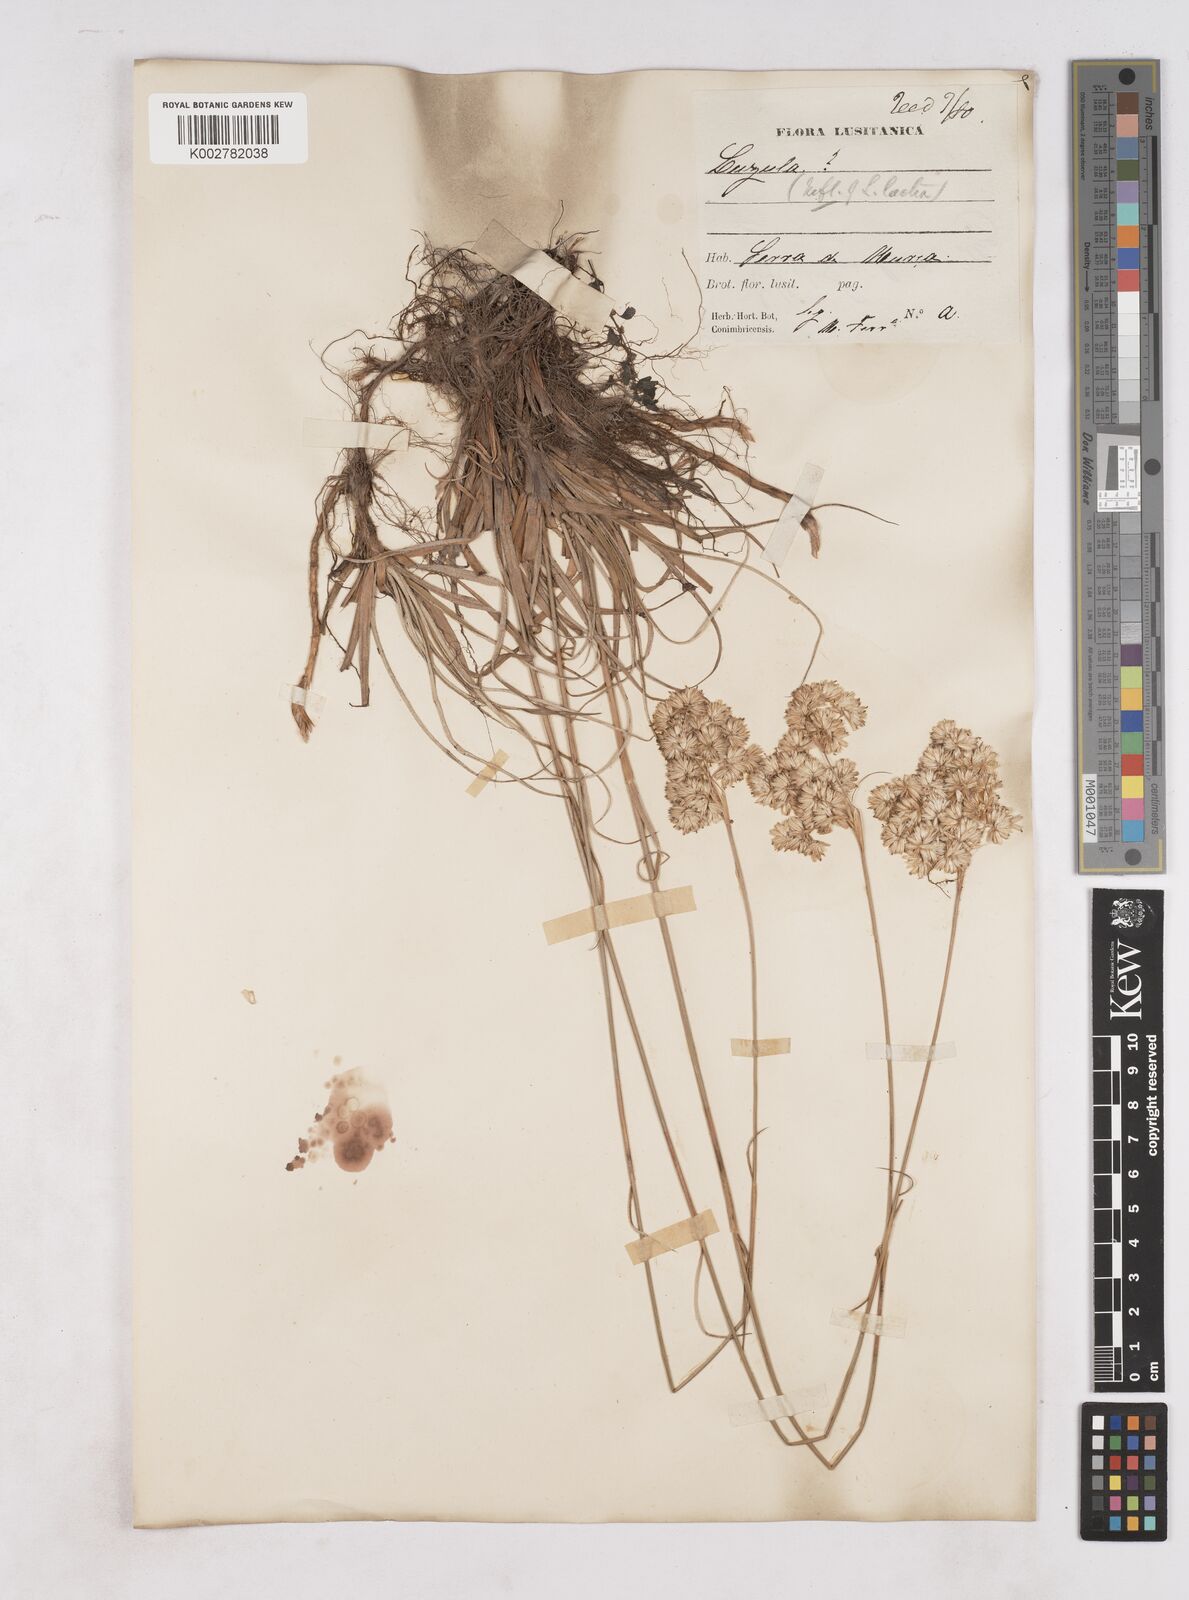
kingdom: Plantae
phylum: Tracheophyta
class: Liliopsida
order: Poales
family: Juncaceae
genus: Luzula
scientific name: Luzula lactea
